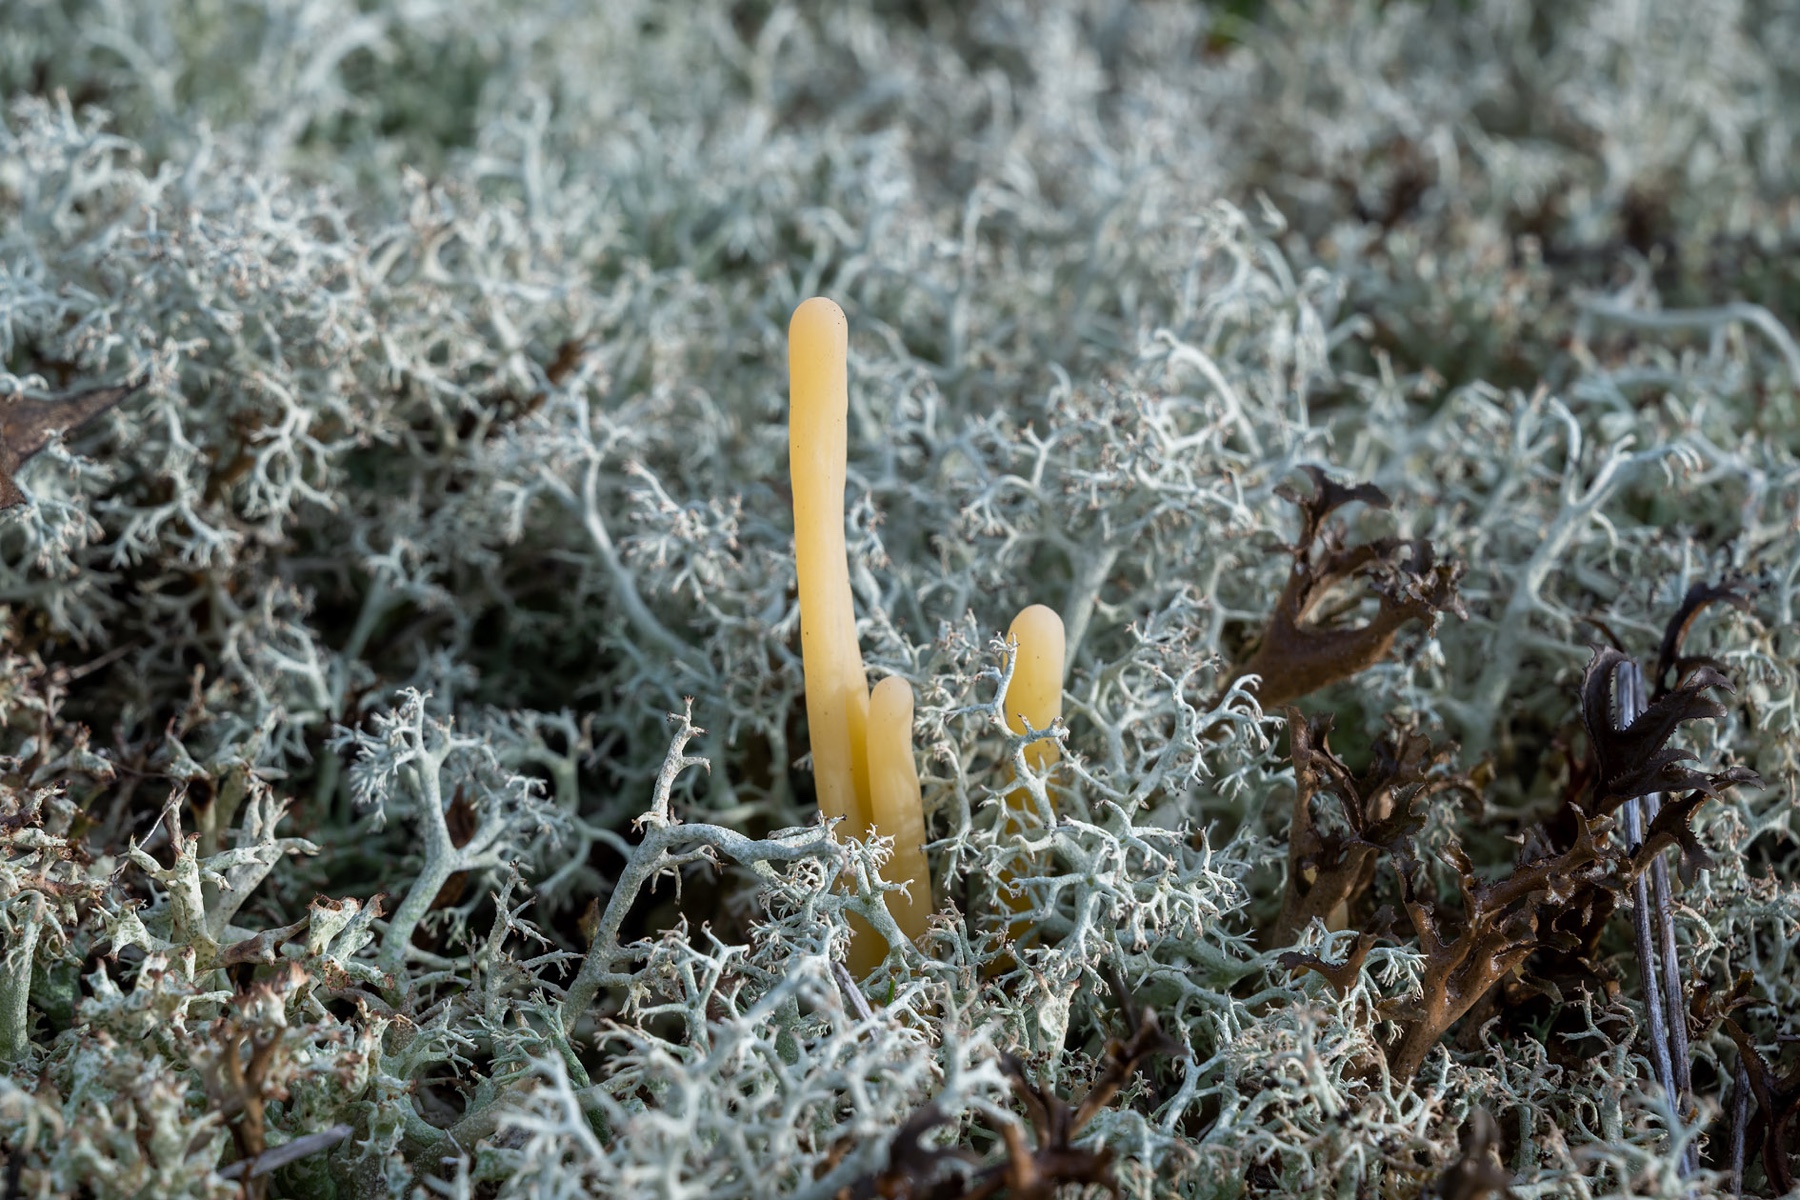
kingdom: Fungi
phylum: Basidiomycota
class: Agaricomycetes
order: Agaricales
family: Clavariaceae
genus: Clavaria
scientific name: Clavaria argillacea
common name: lerfarvet køllesvamp
